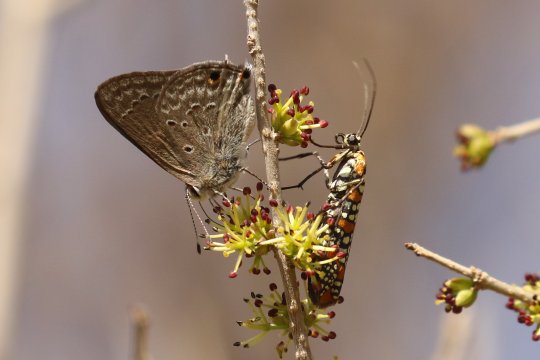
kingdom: Animalia
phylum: Arthropoda
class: Insecta
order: Lepidoptera
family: Lycaenidae
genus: Callicista
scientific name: Callicista columella
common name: Mallow Scrub-Hairstreak
